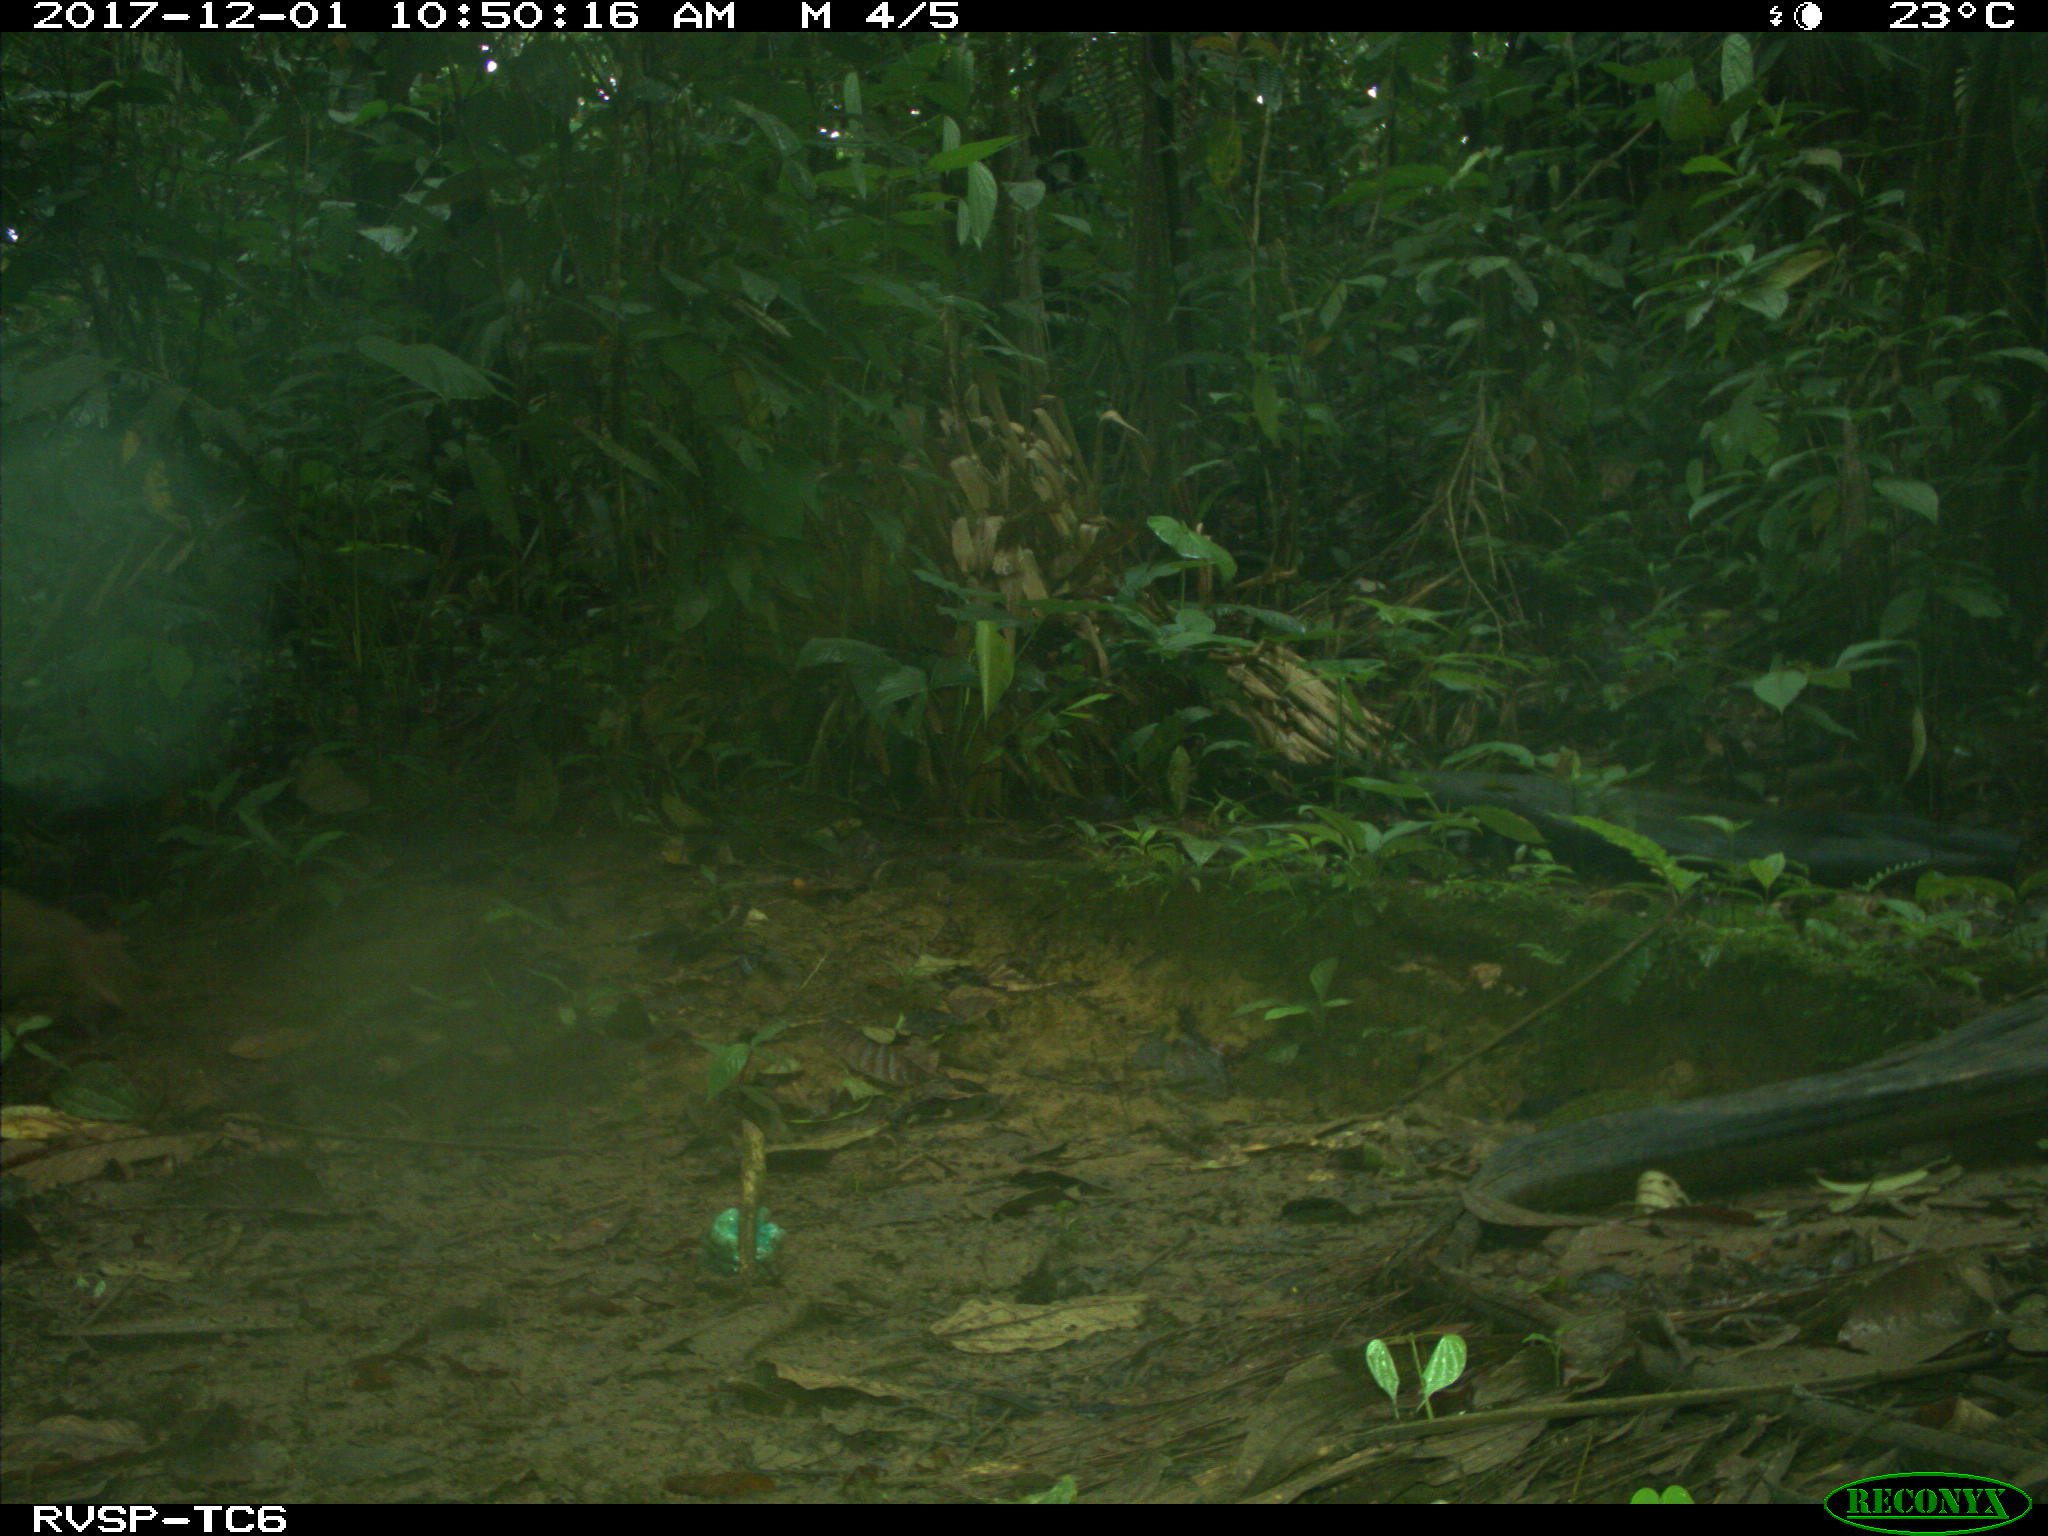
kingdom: Animalia
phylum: Chordata
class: Mammalia
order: Rodentia
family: Dasyproctidae
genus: Dasyprocta
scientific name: Dasyprocta punctata
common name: Central american agouti
